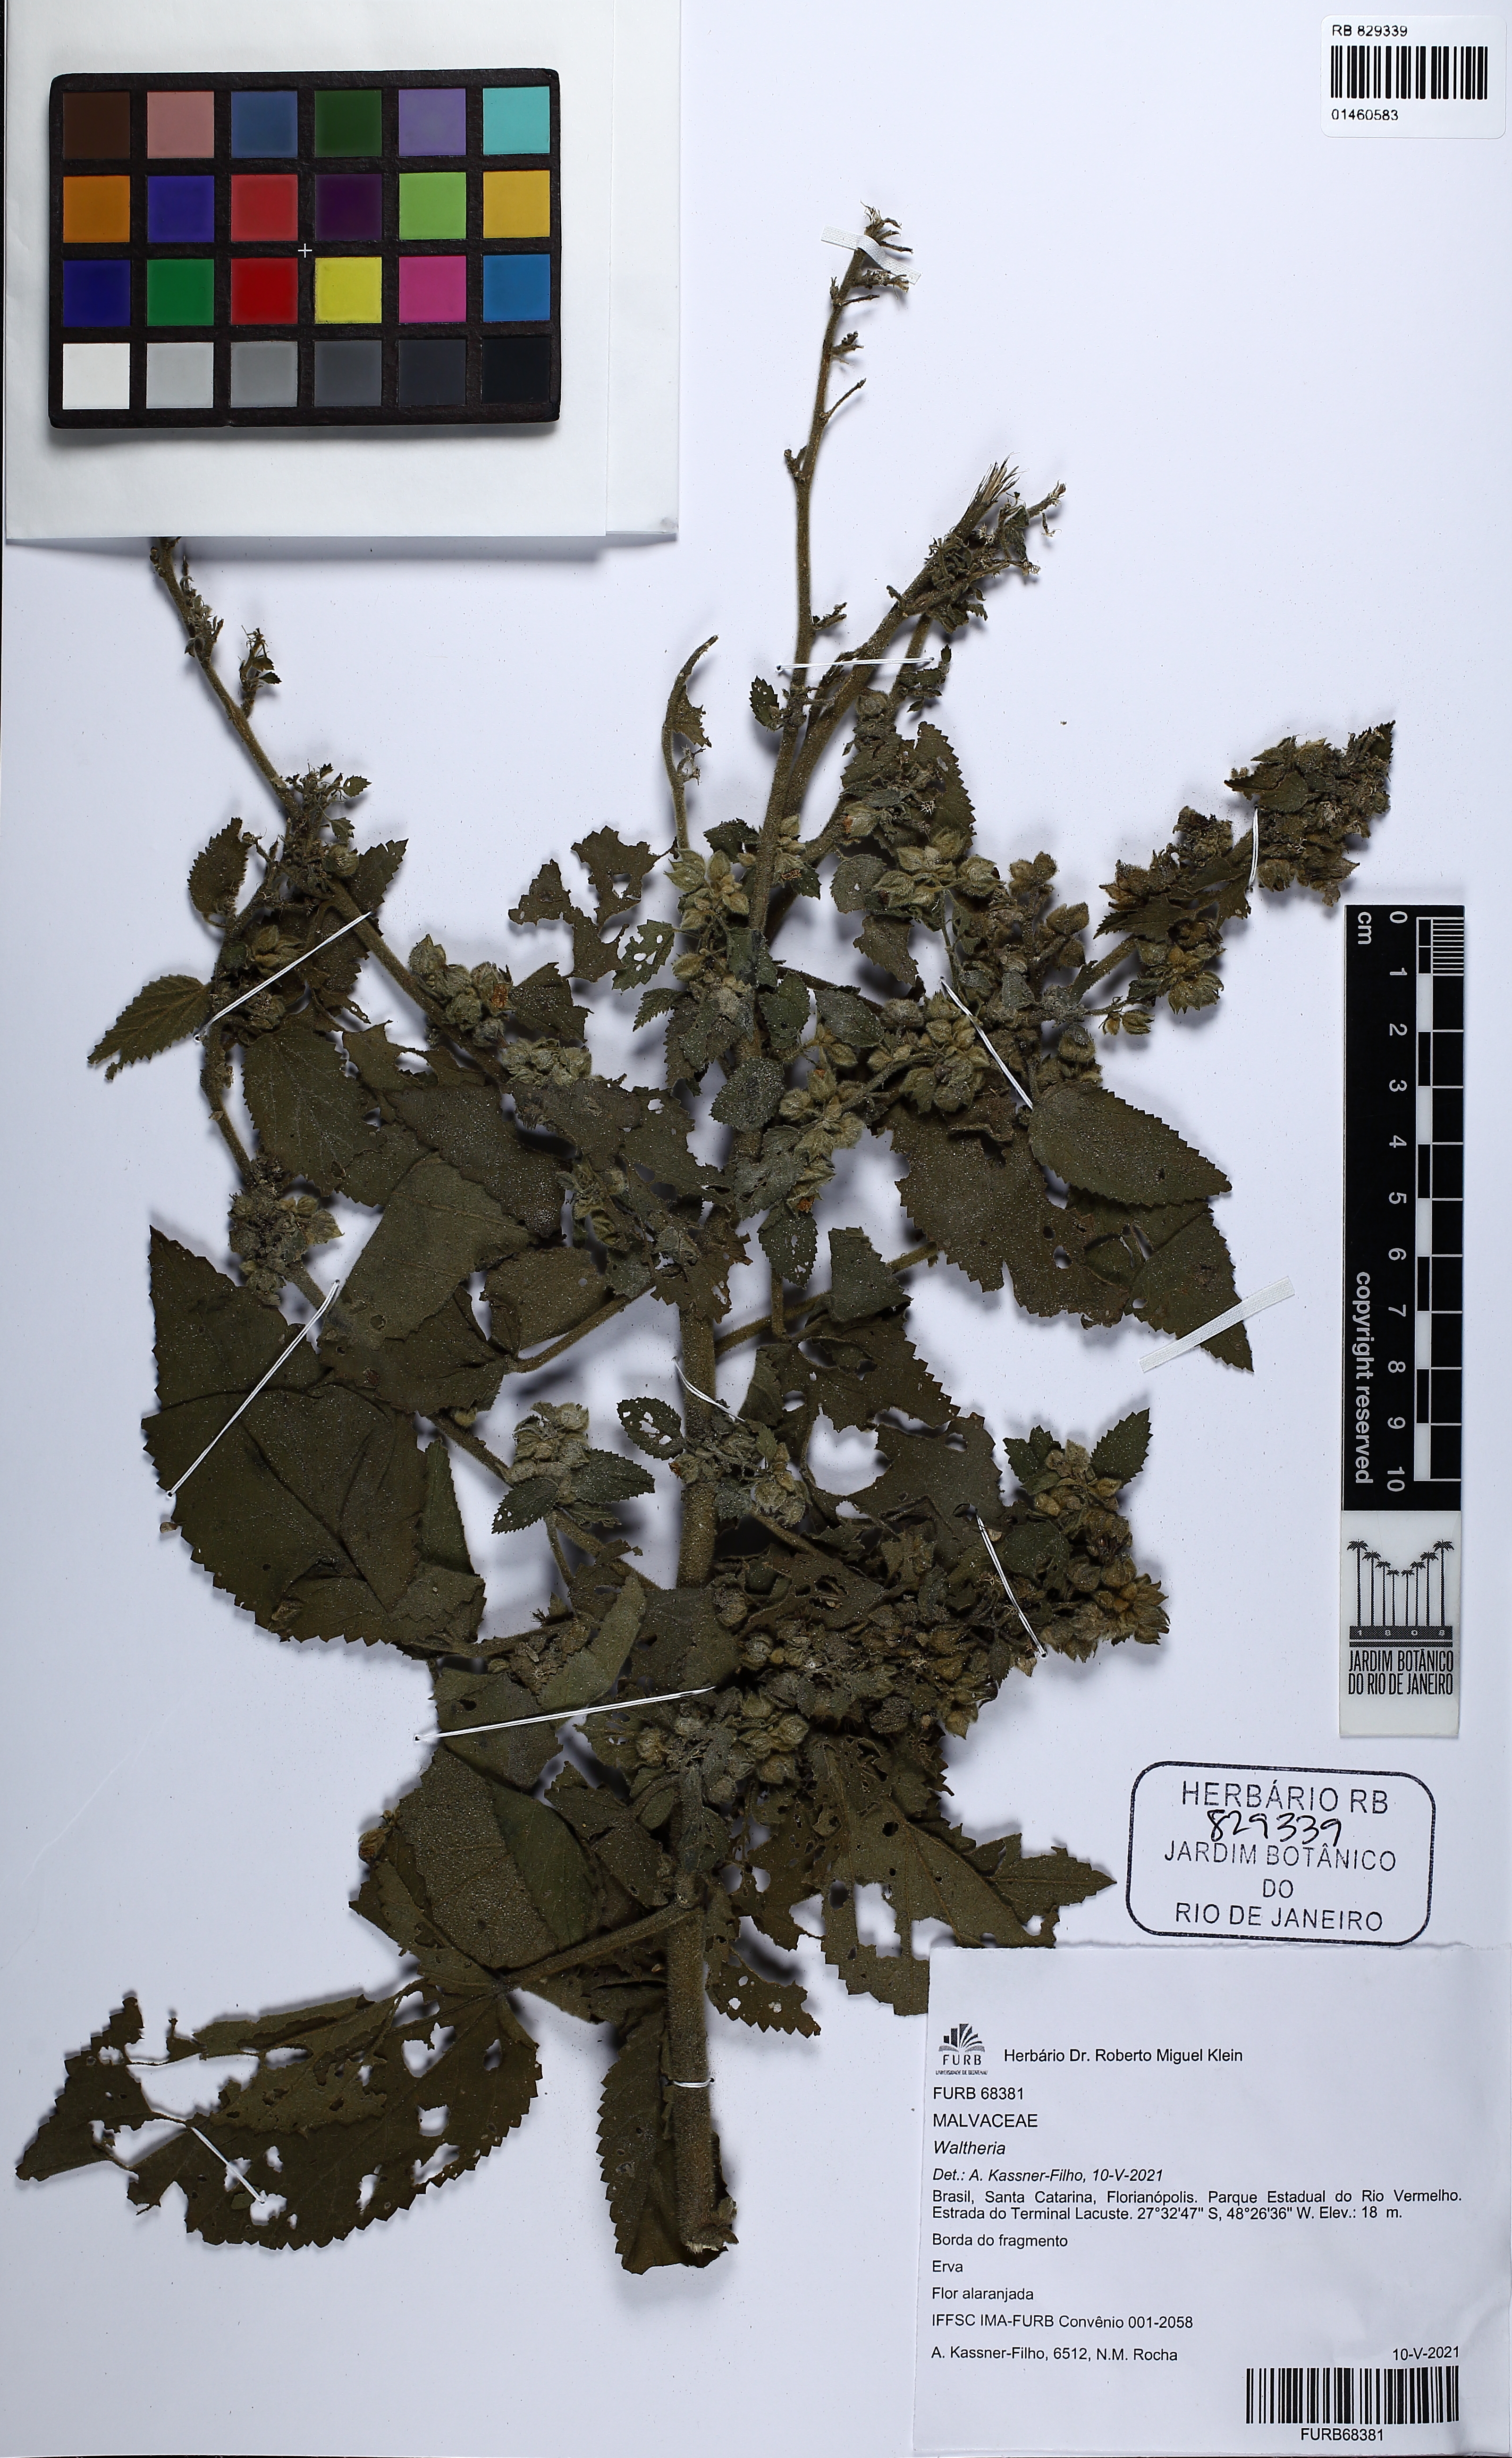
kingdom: Plantae
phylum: Tracheophyta
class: Magnoliopsida
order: Malvales
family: Malvaceae
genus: Waltheria
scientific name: Waltheria
